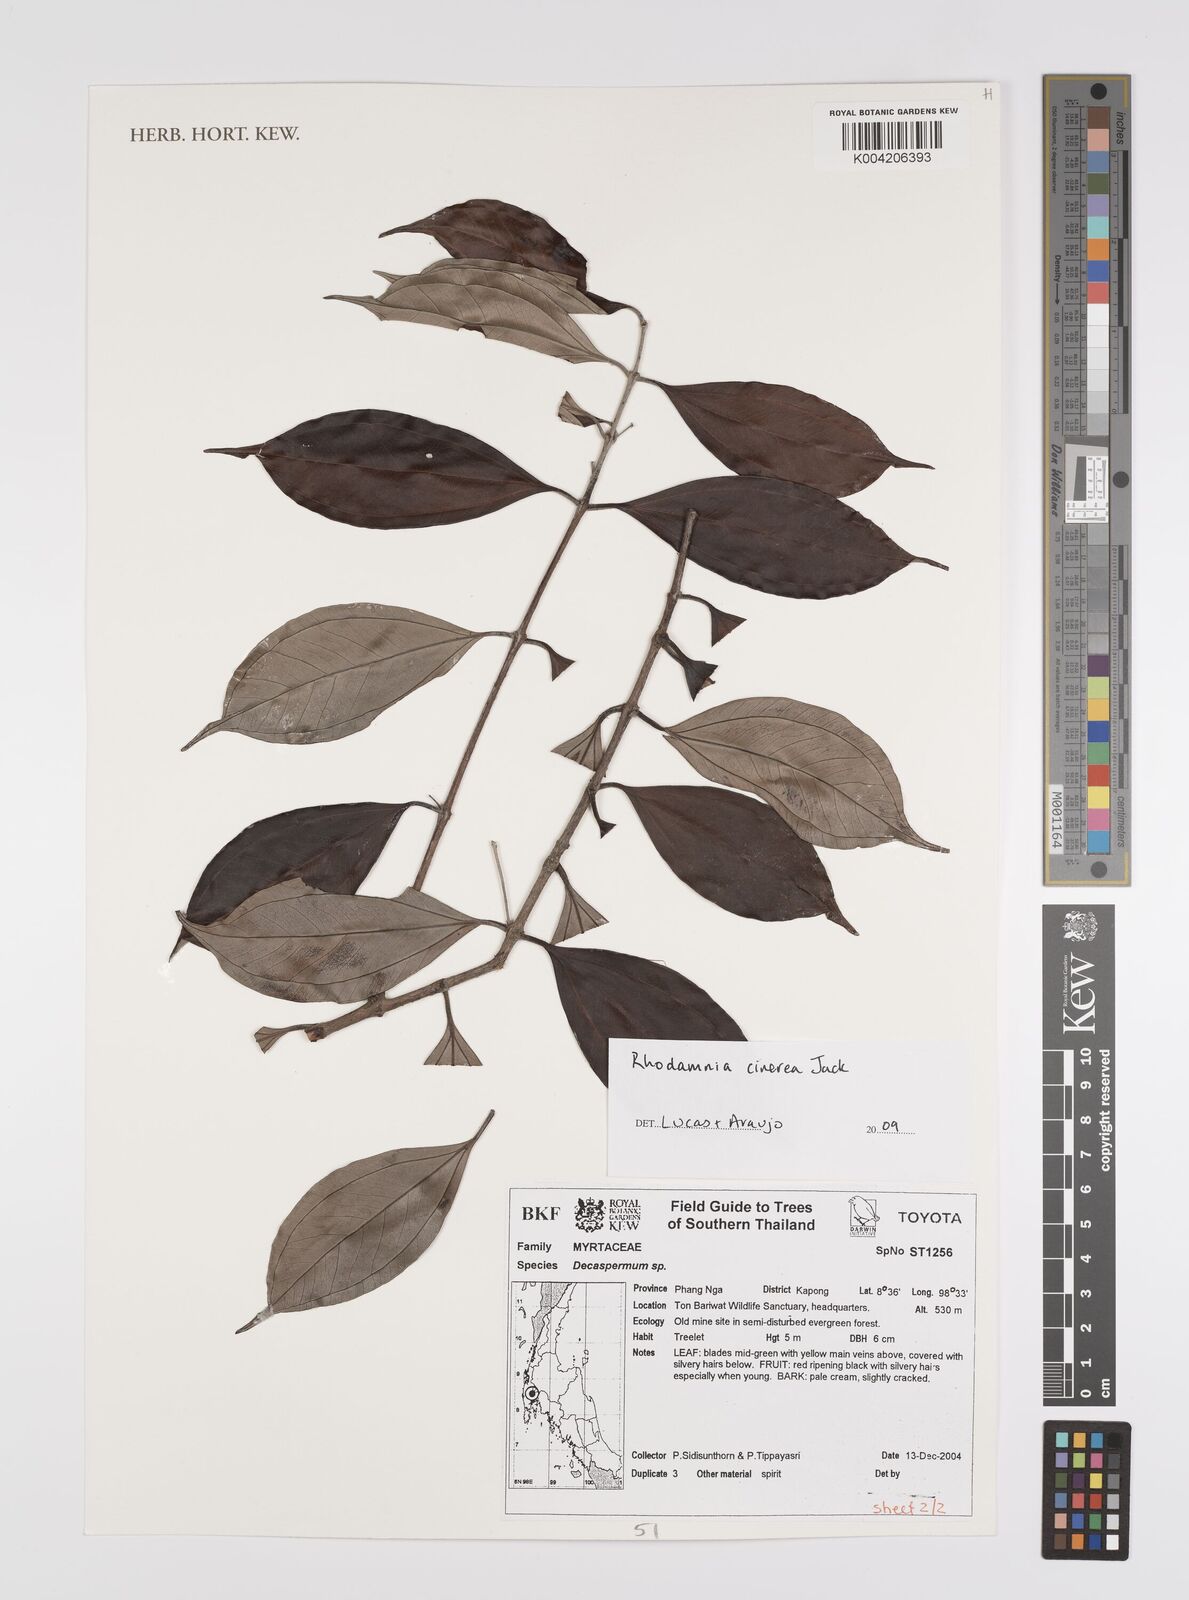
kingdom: Plantae
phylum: Tracheophyta
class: Magnoliopsida
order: Myrtales
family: Myrtaceae
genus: Rhodamnia
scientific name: Rhodamnia cinerea
